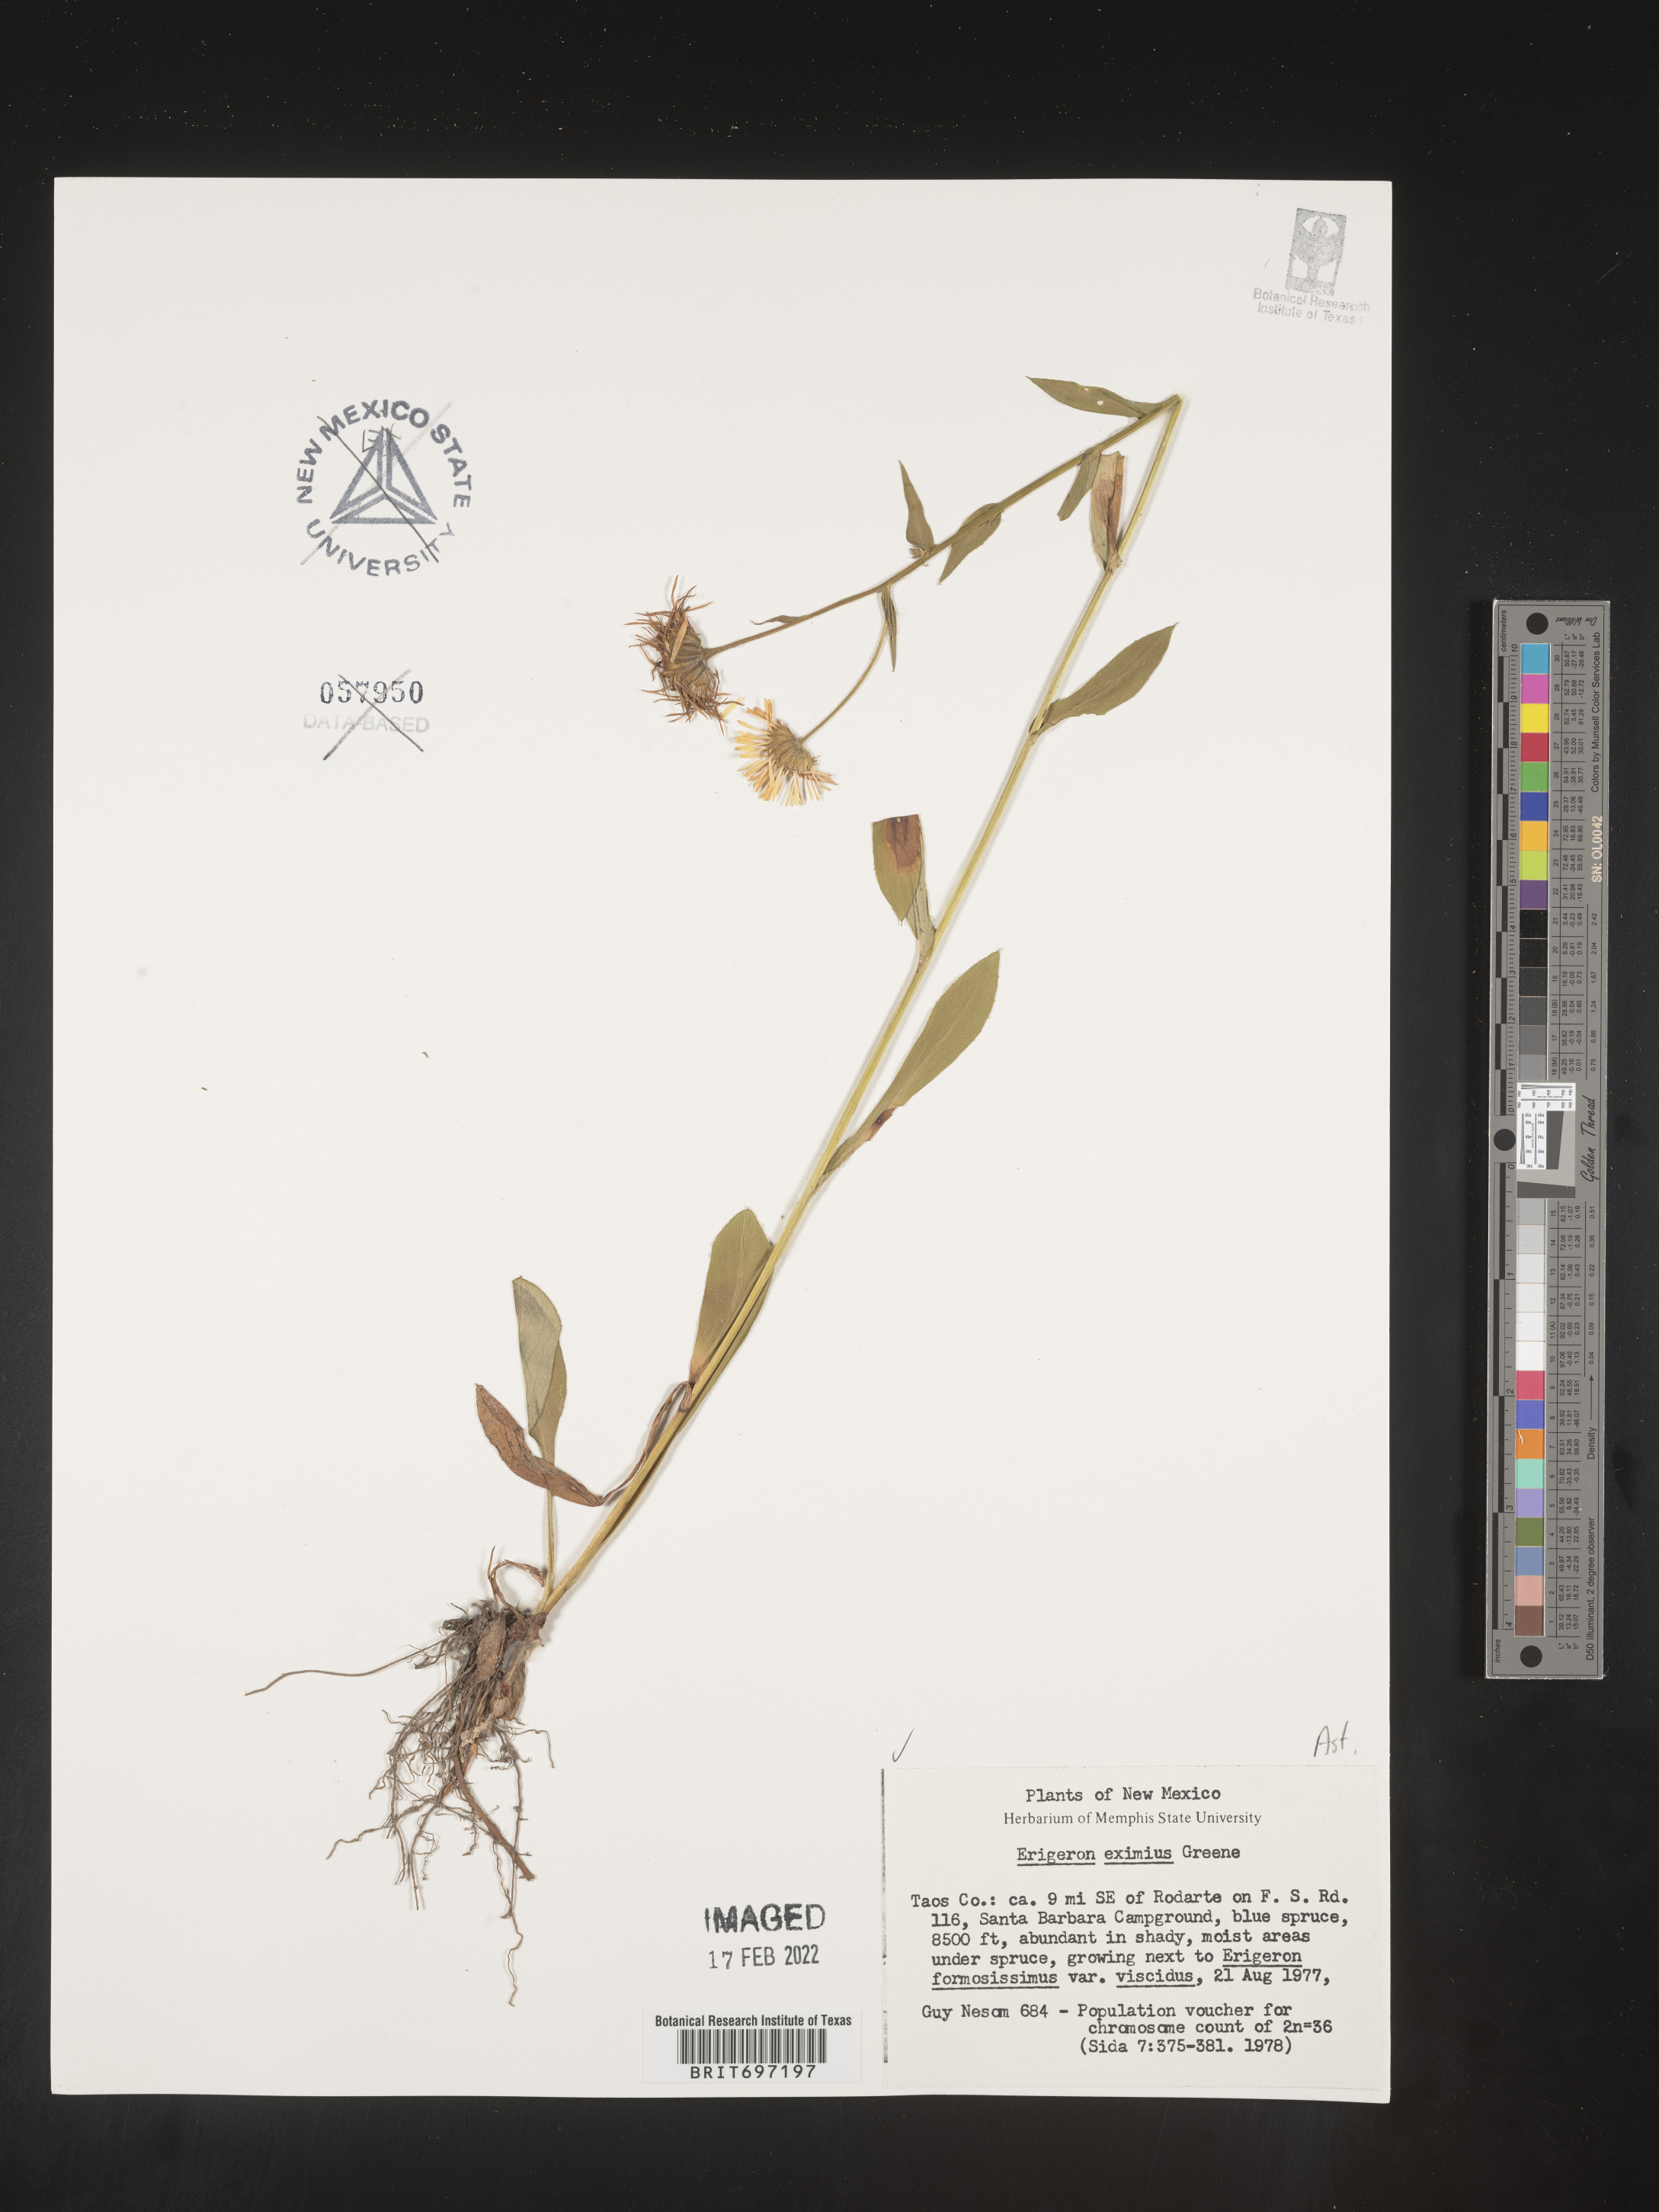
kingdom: Plantae
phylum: Tracheophyta
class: Magnoliopsida
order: Asterales
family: Asteraceae
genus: Erigeron
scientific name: Erigeron eximius
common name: Spruce-fir fleabane
